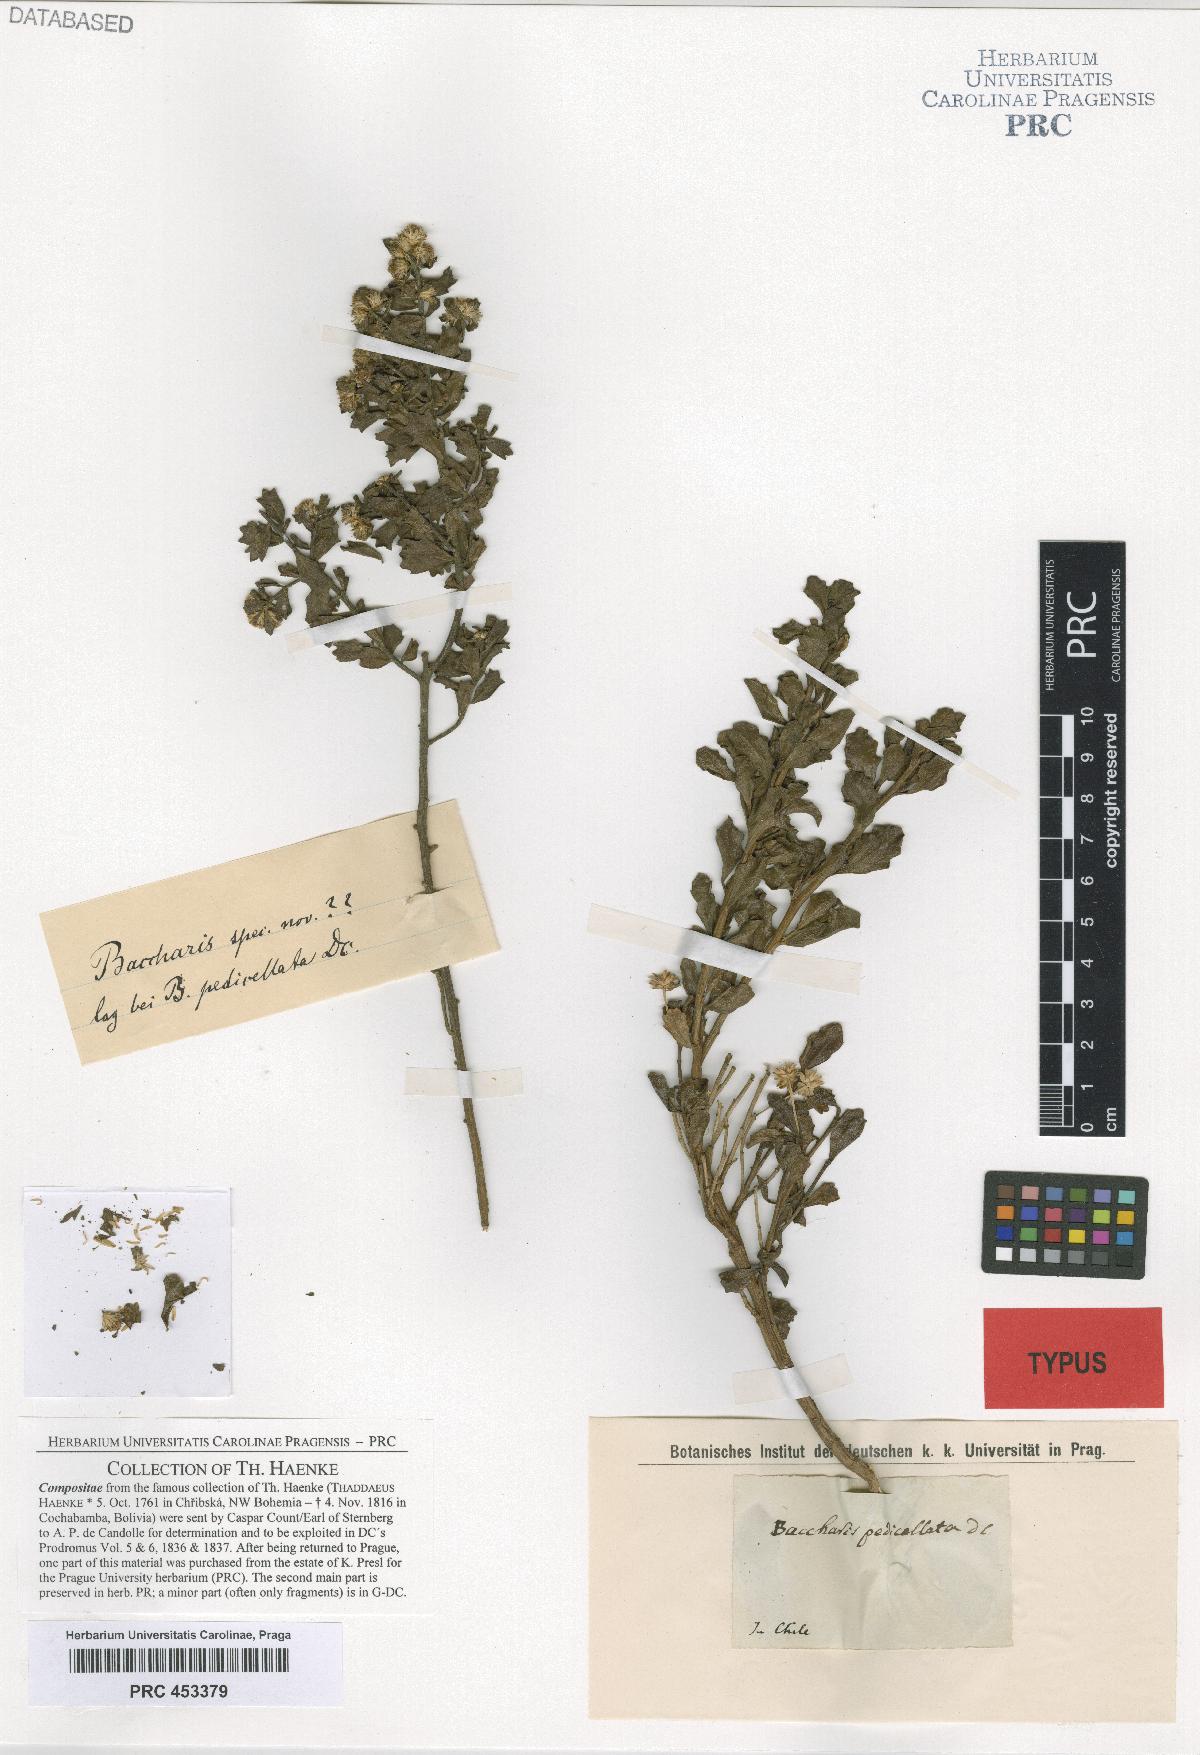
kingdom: Plantae
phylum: Tracheophyta
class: Magnoliopsida
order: Asterales
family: Asteraceae
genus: Baccharis
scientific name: Baccharis poeppigiana
